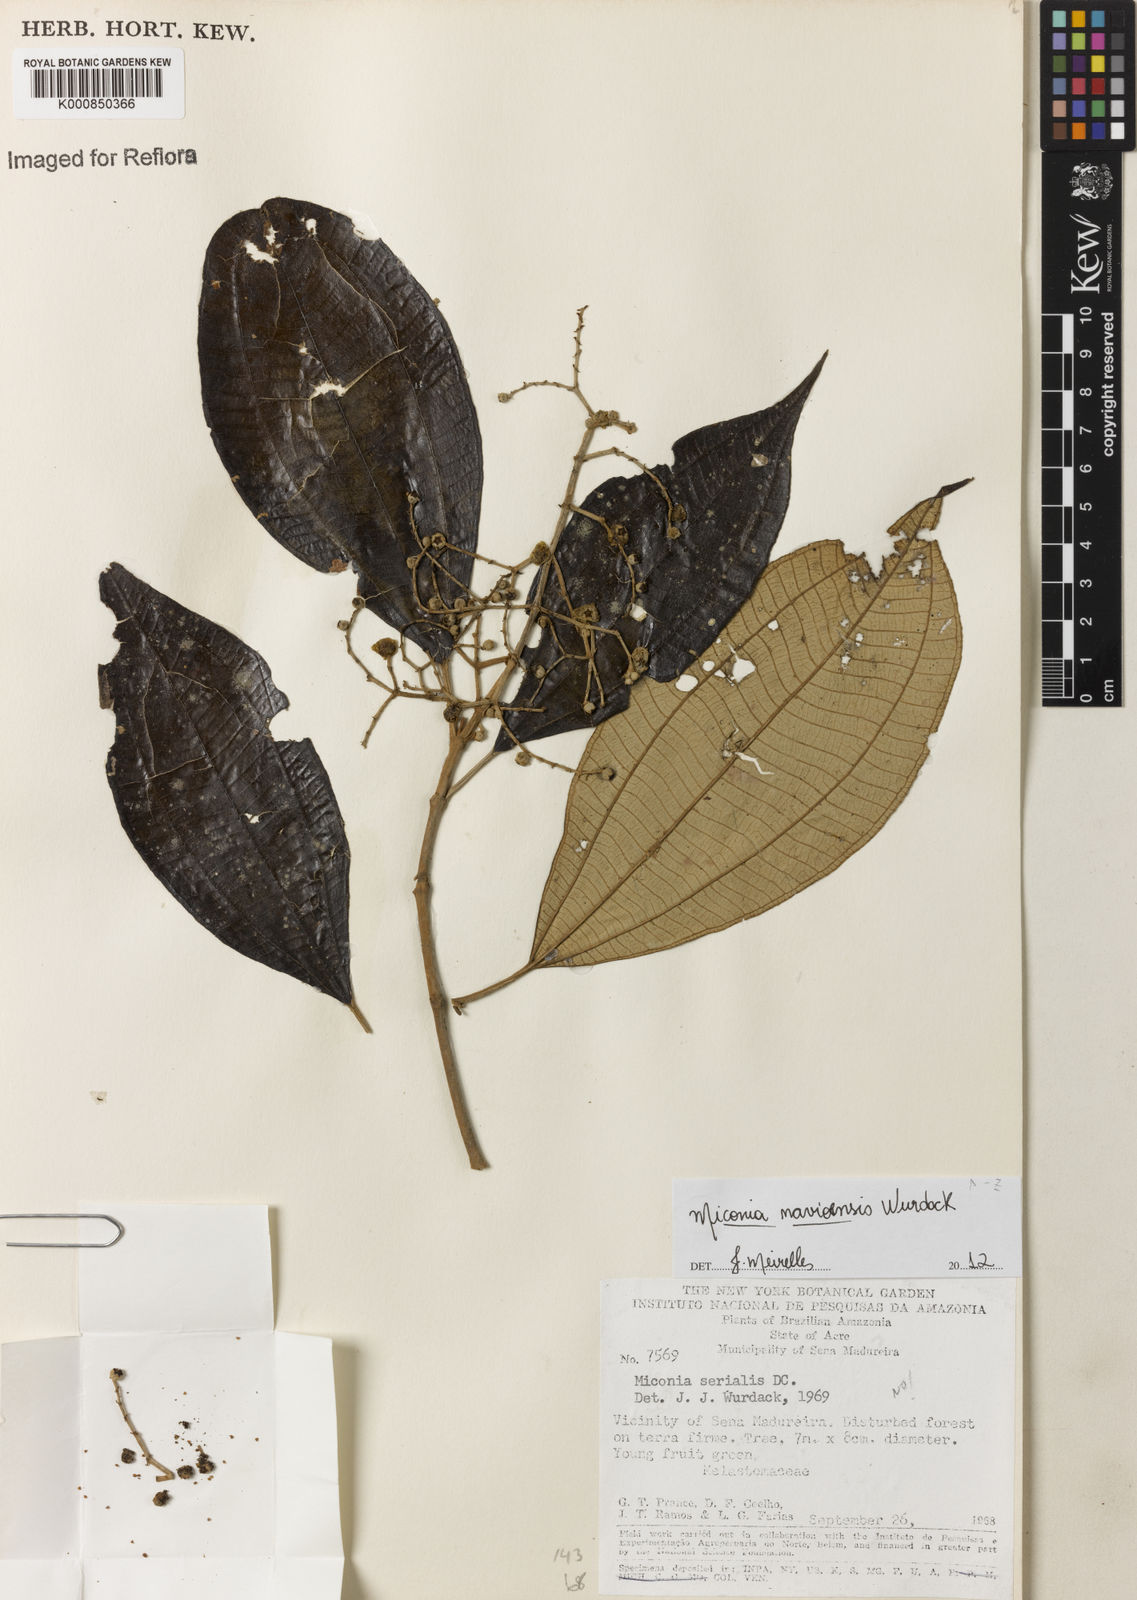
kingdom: Plantae
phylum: Tracheophyta
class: Magnoliopsida
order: Myrtales
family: Melastomataceae
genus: Miconia
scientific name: Miconia navioensis
